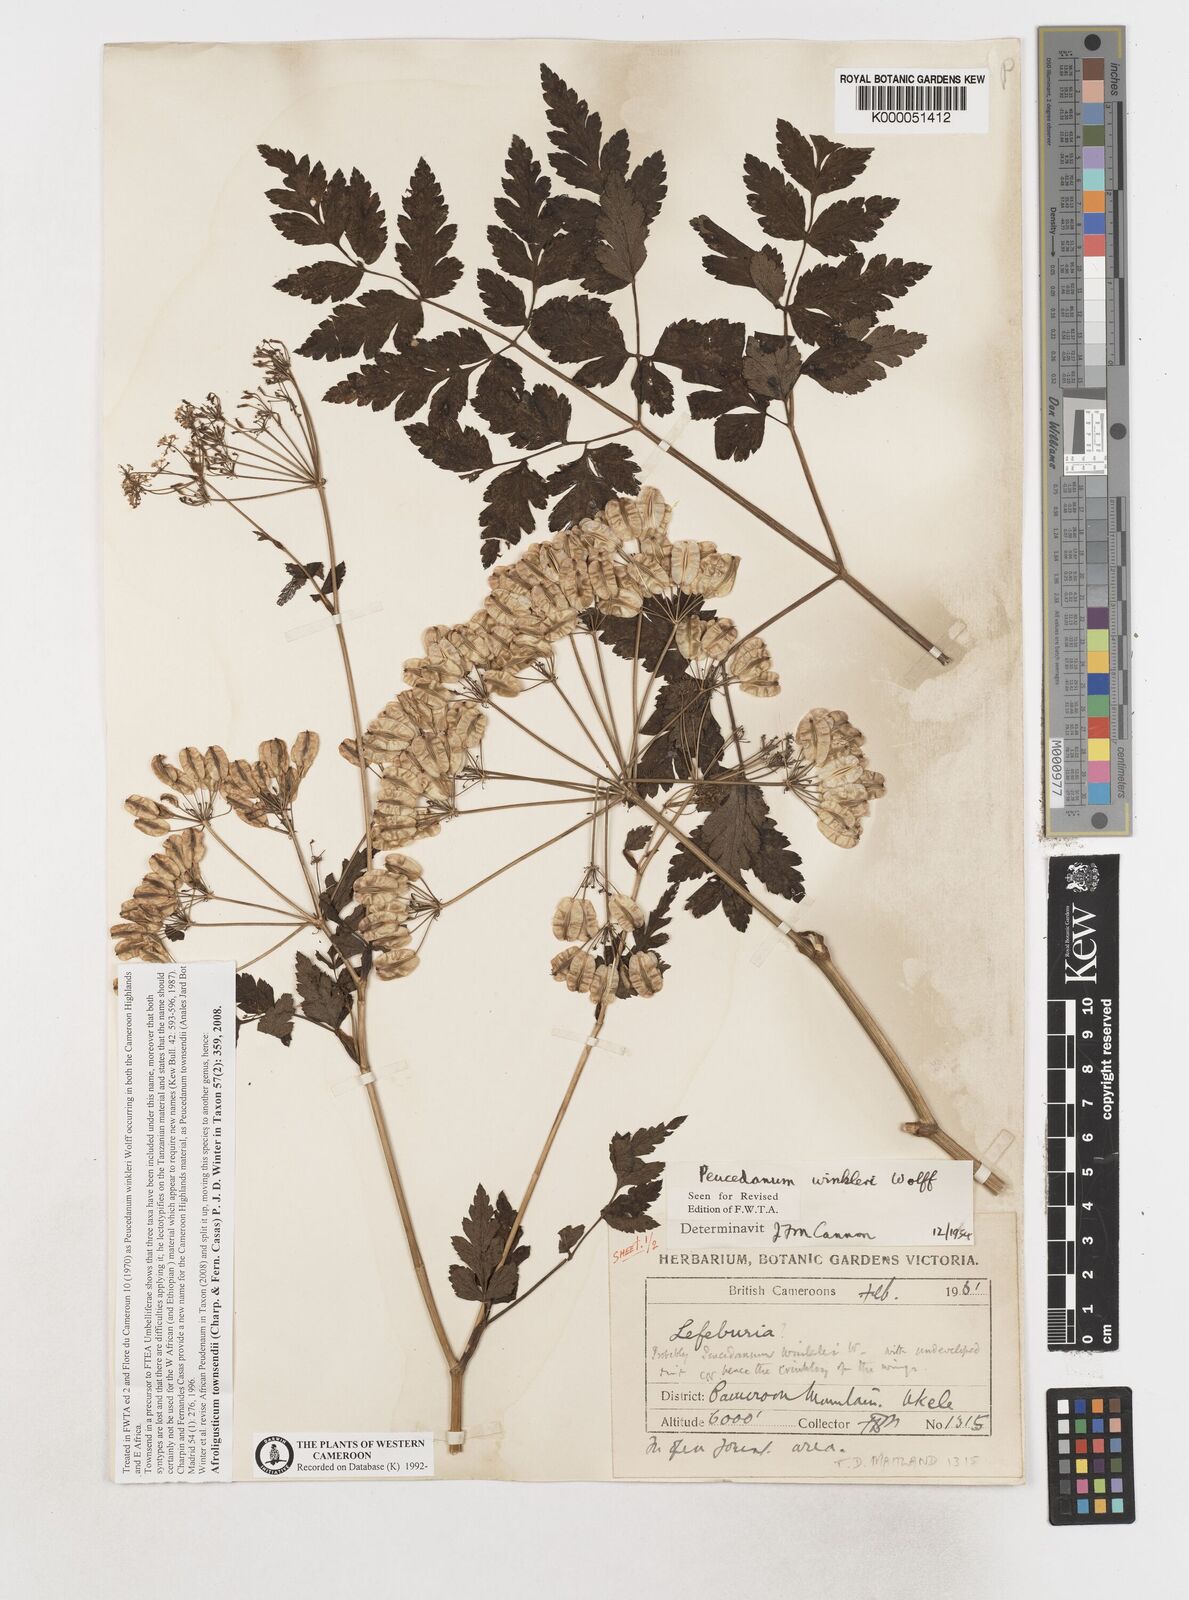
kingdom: Plantae
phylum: Tracheophyta
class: Magnoliopsida
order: Apiales
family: Apiaceae
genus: Afroligusticum
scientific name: Afroligusticum
